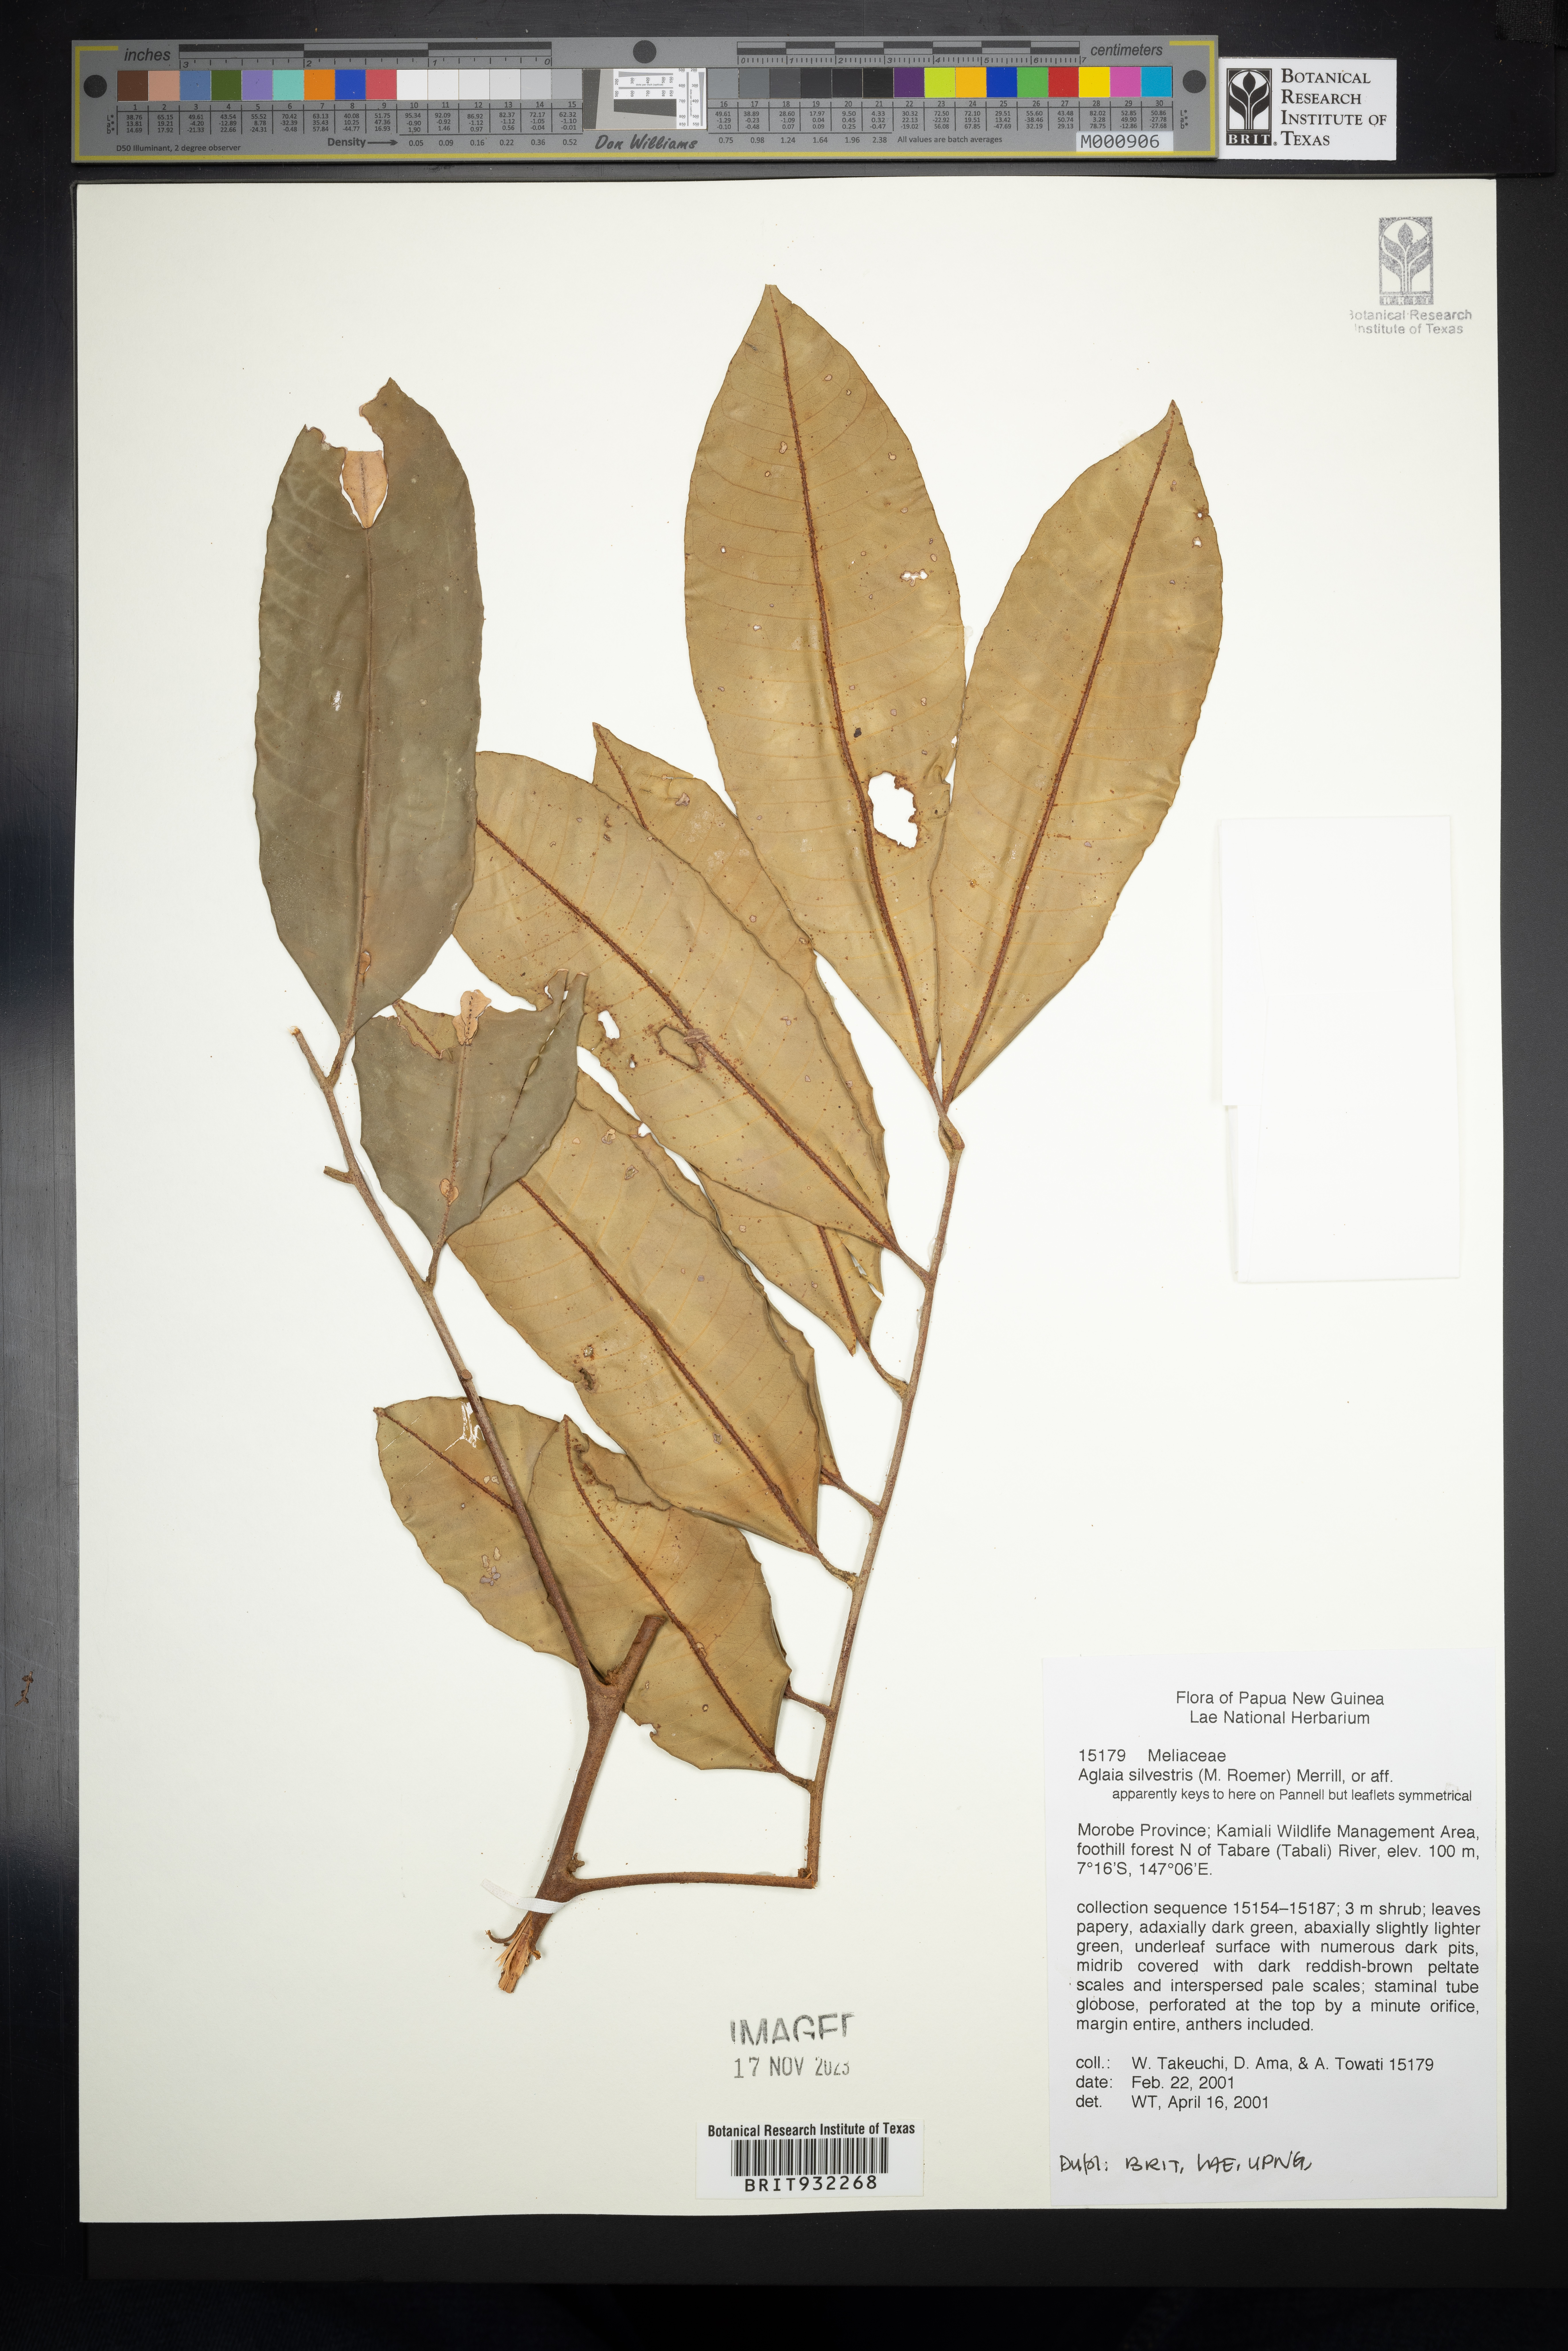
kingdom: Plantae
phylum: Tracheophyta
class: Magnoliopsida
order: Sapindales
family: Meliaceae
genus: Aglaia
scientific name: Aglaia
